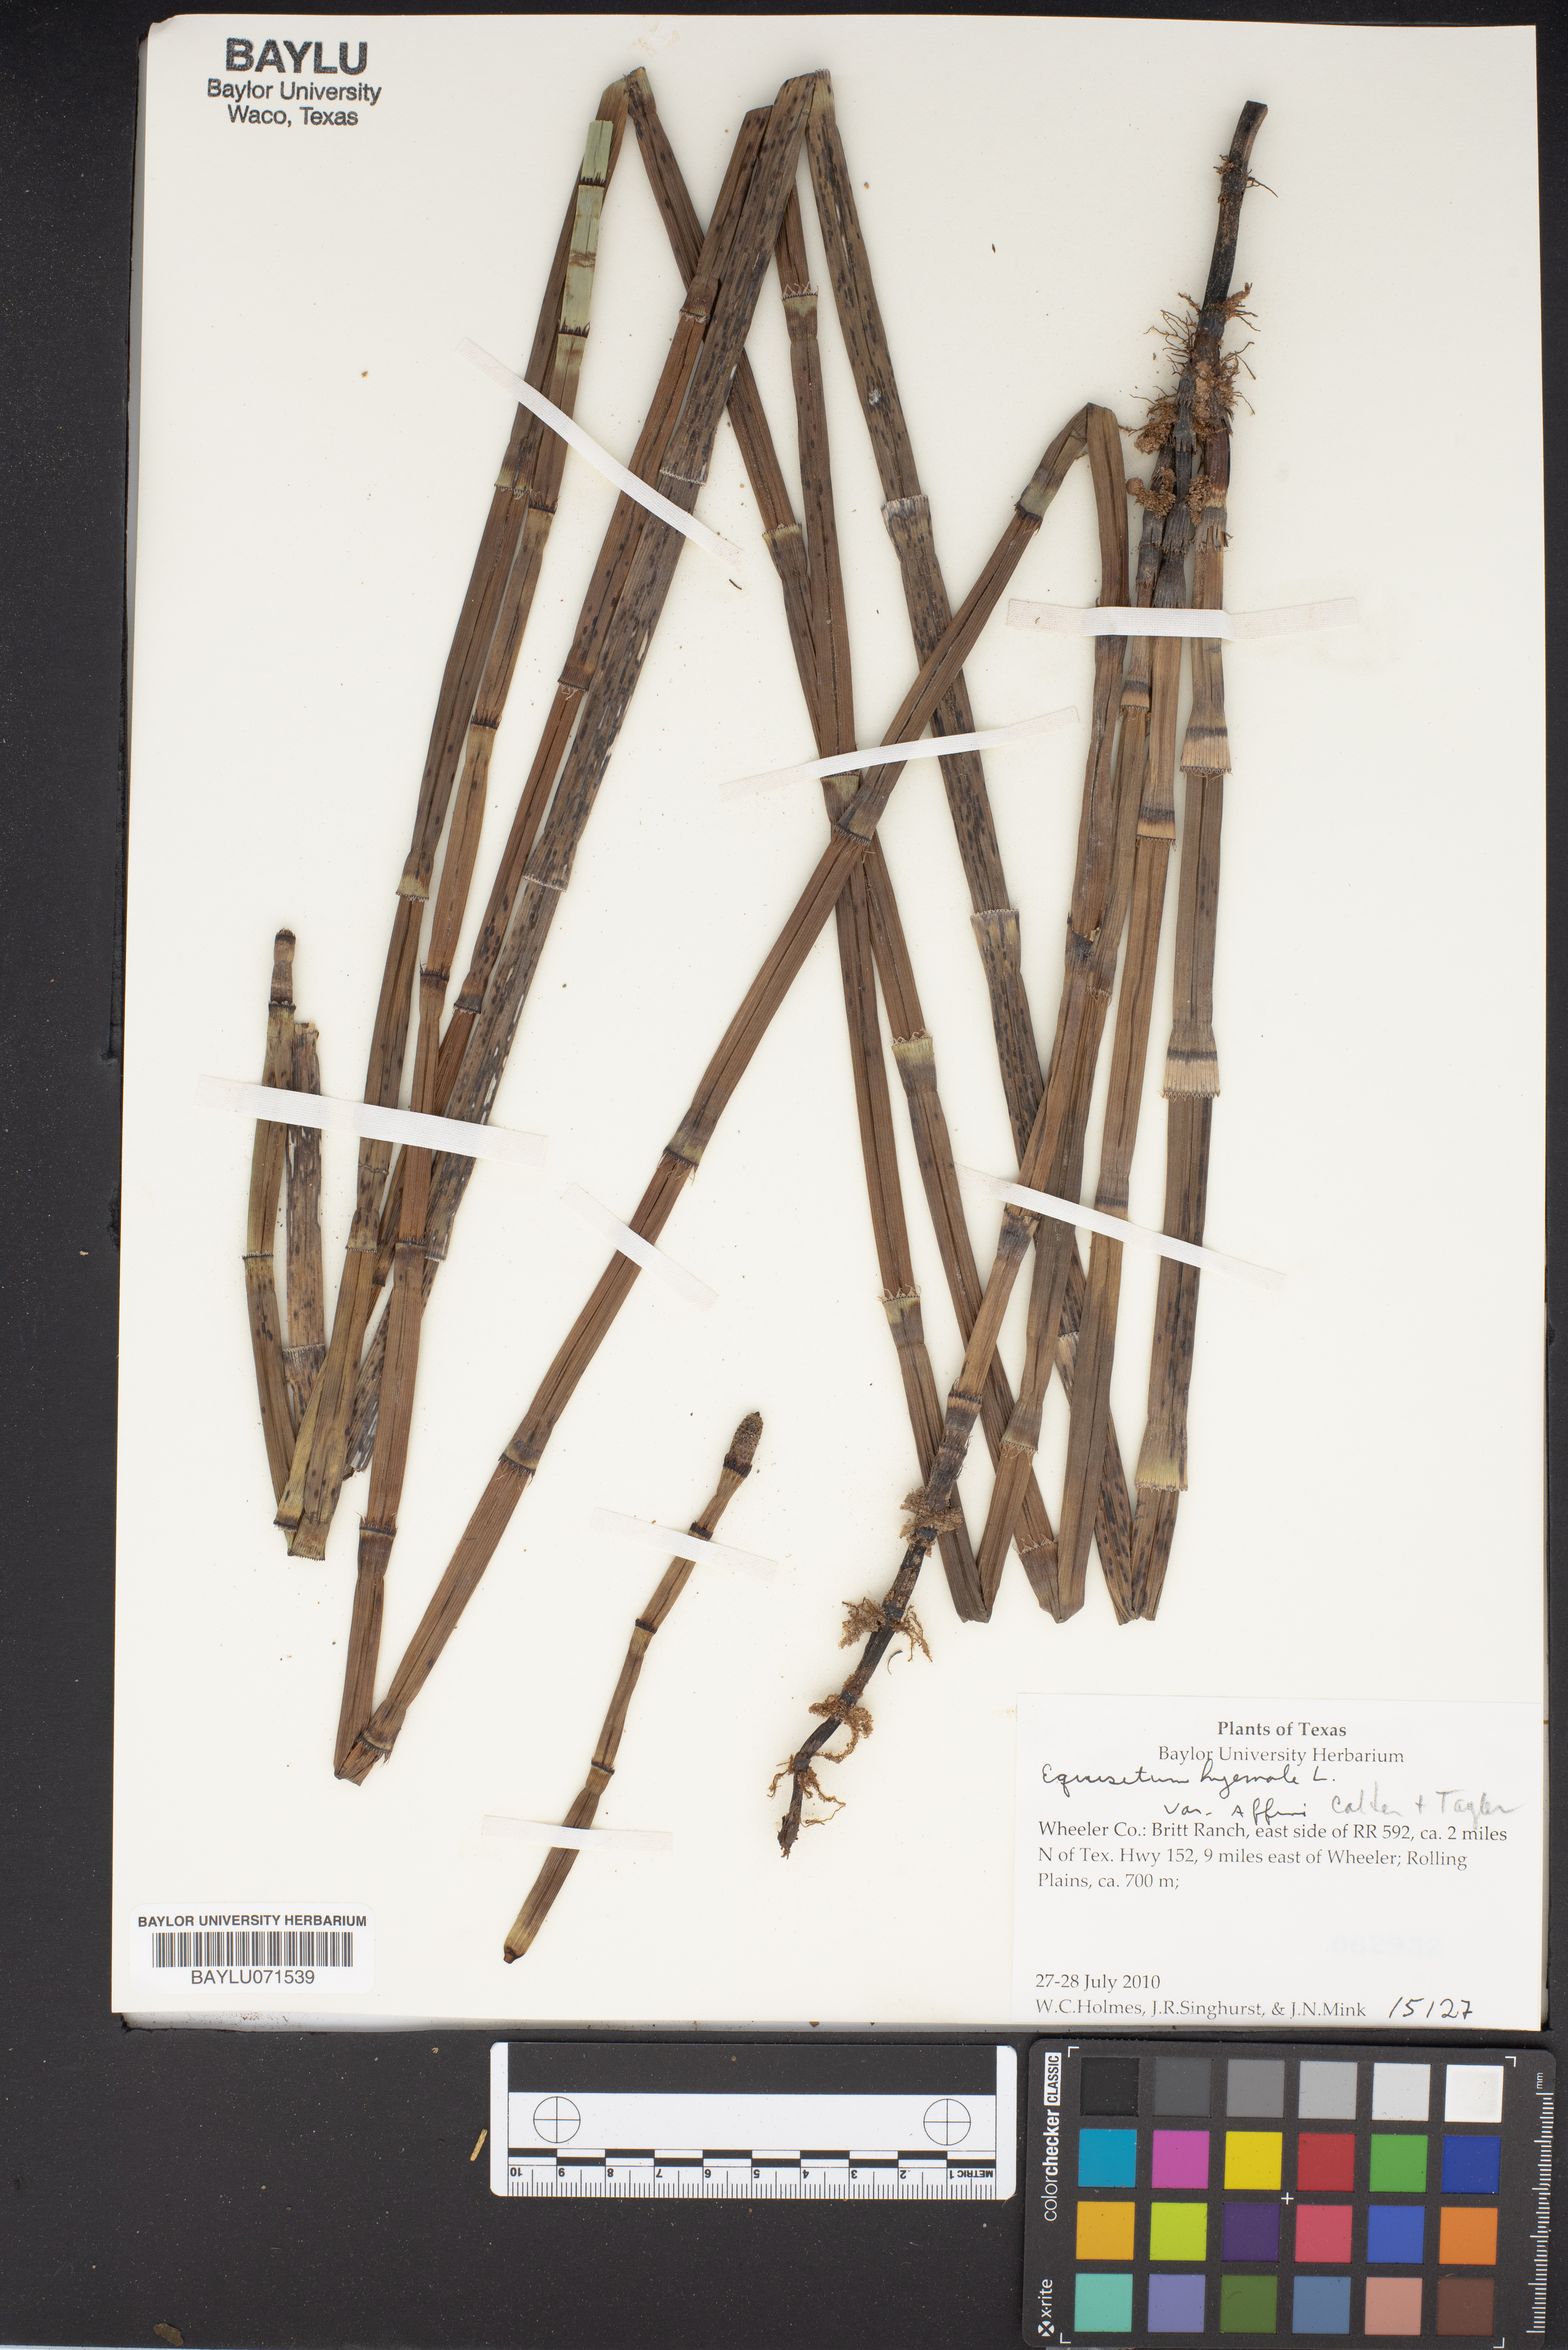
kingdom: Plantae
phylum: Tracheophyta
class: Polypodiopsida
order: Equisetales
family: Equisetaceae
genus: Equisetum
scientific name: Equisetum praealtum
